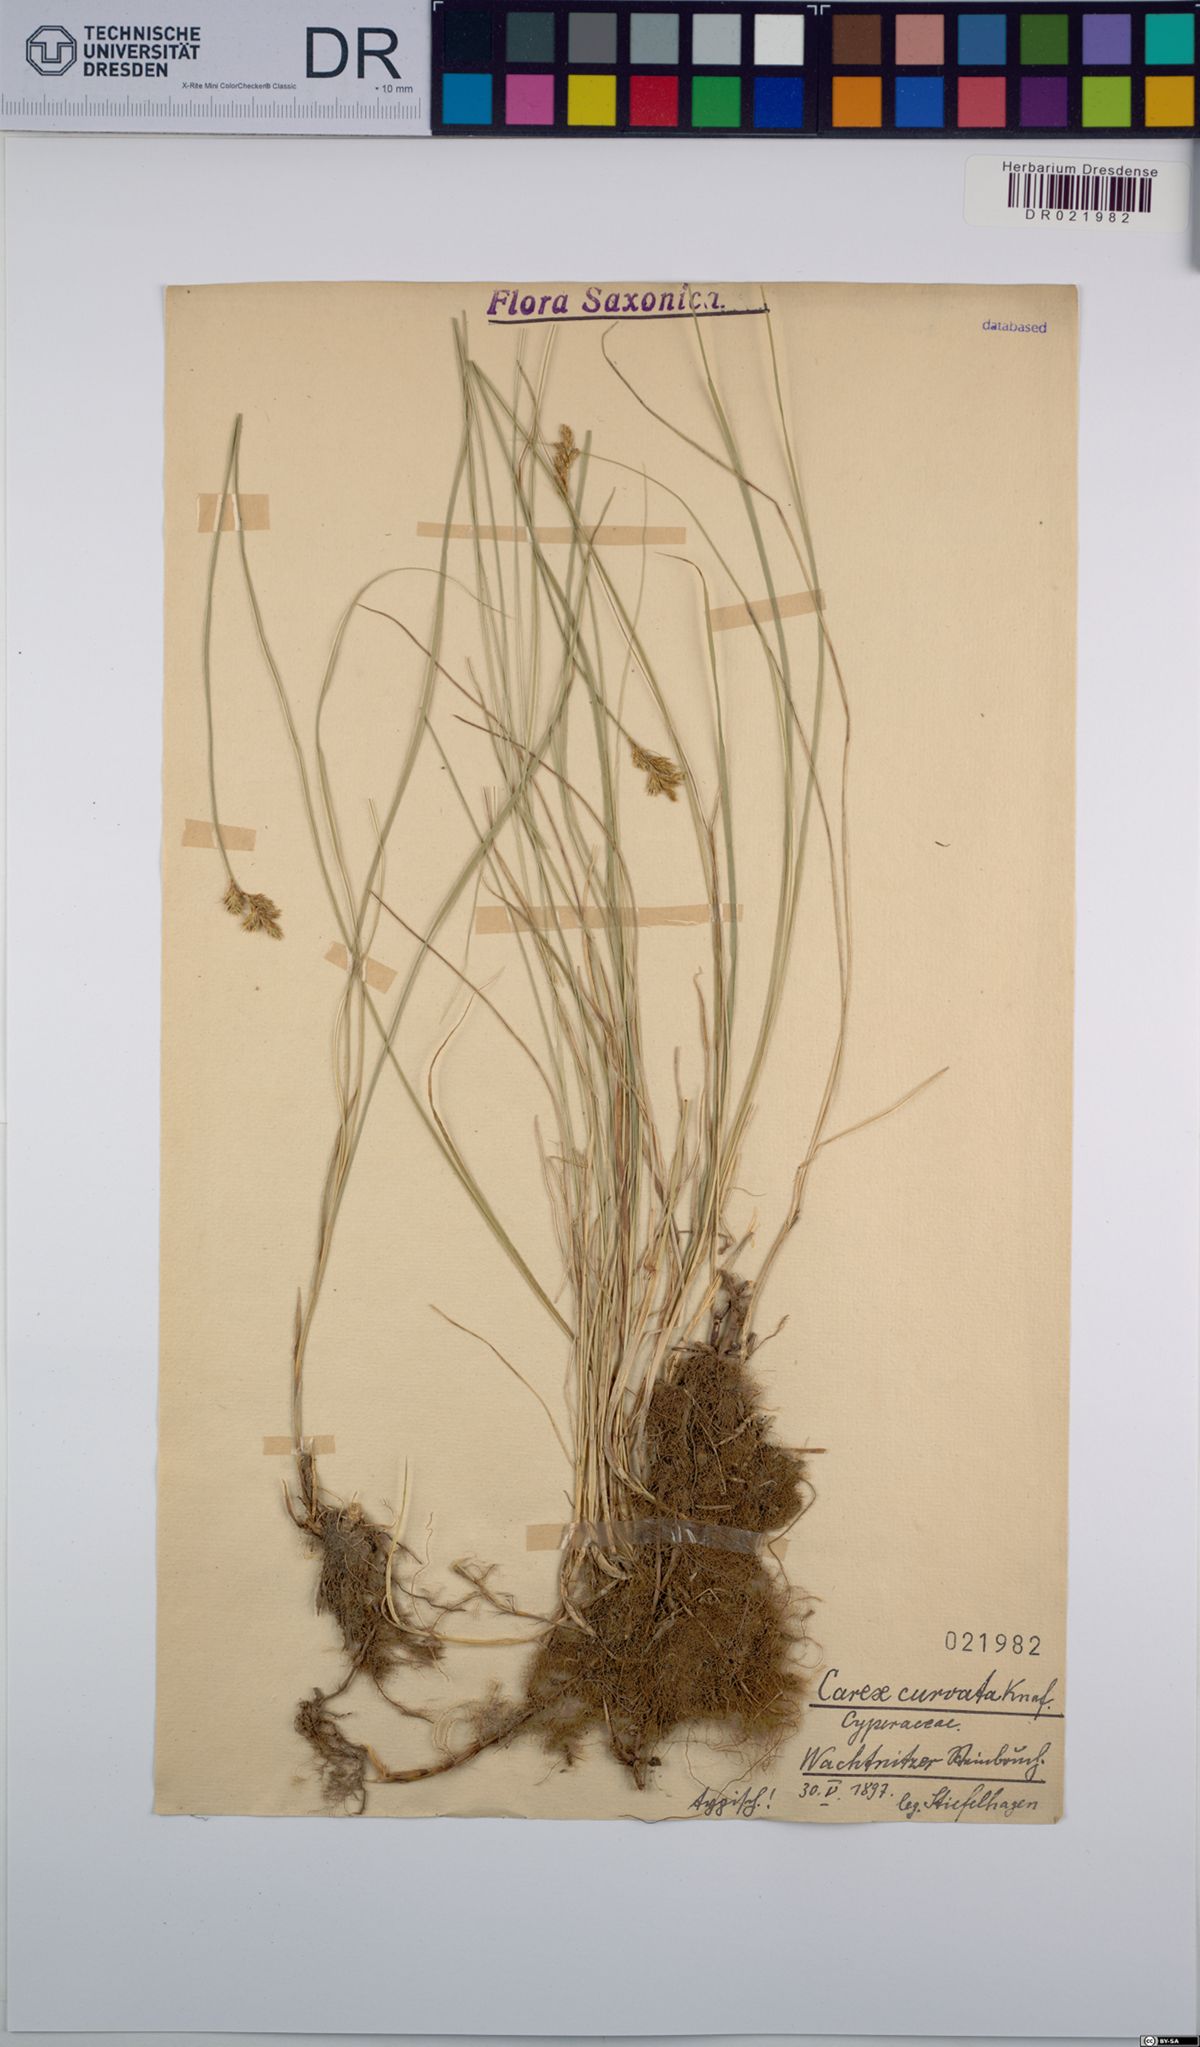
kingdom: Plantae
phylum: Tracheophyta
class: Liliopsida
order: Poales
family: Cyperaceae
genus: Carex
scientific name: Carex curvata
